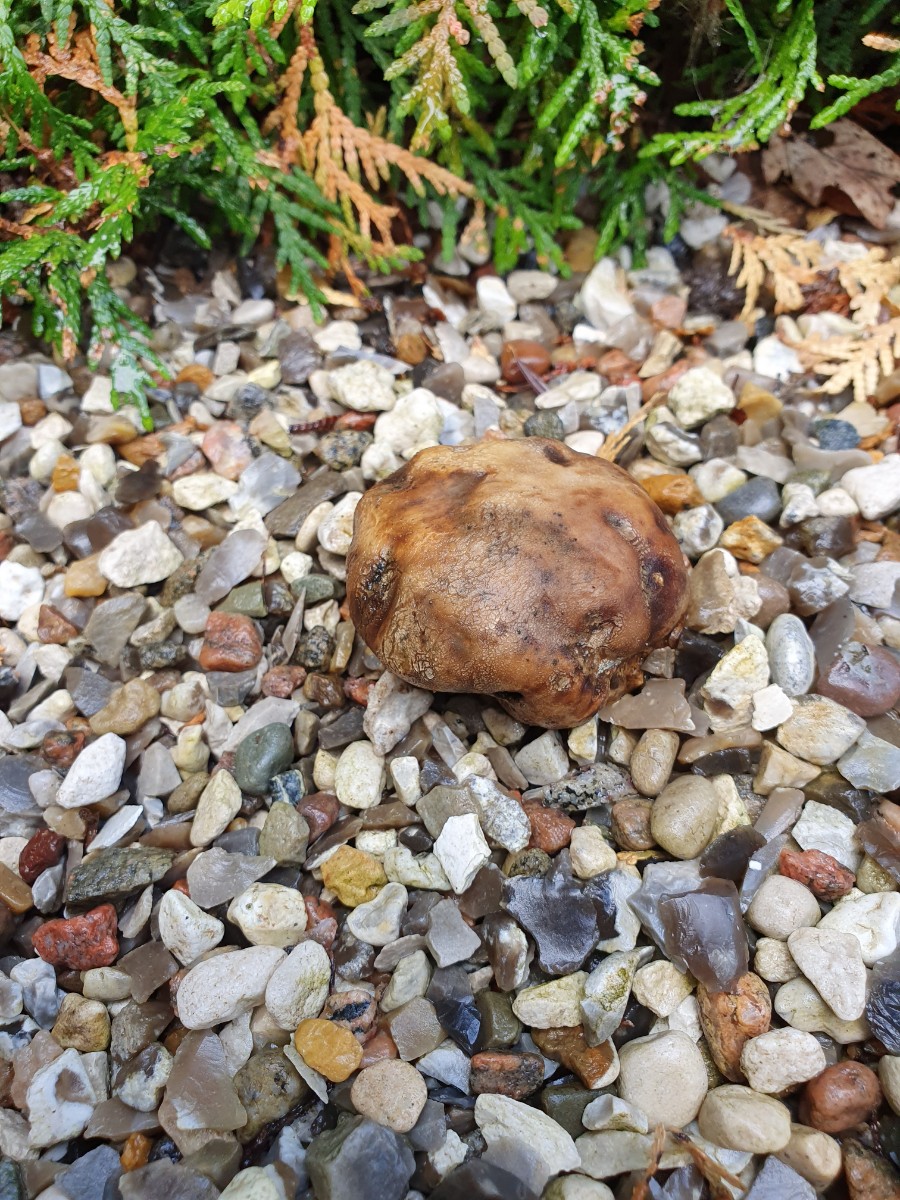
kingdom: Fungi
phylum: Basidiomycota
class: Agaricomycetes
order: Boletales
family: Sclerodermataceae
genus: Scleroderma
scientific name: Scleroderma verrucosum
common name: stilket bruskbold
